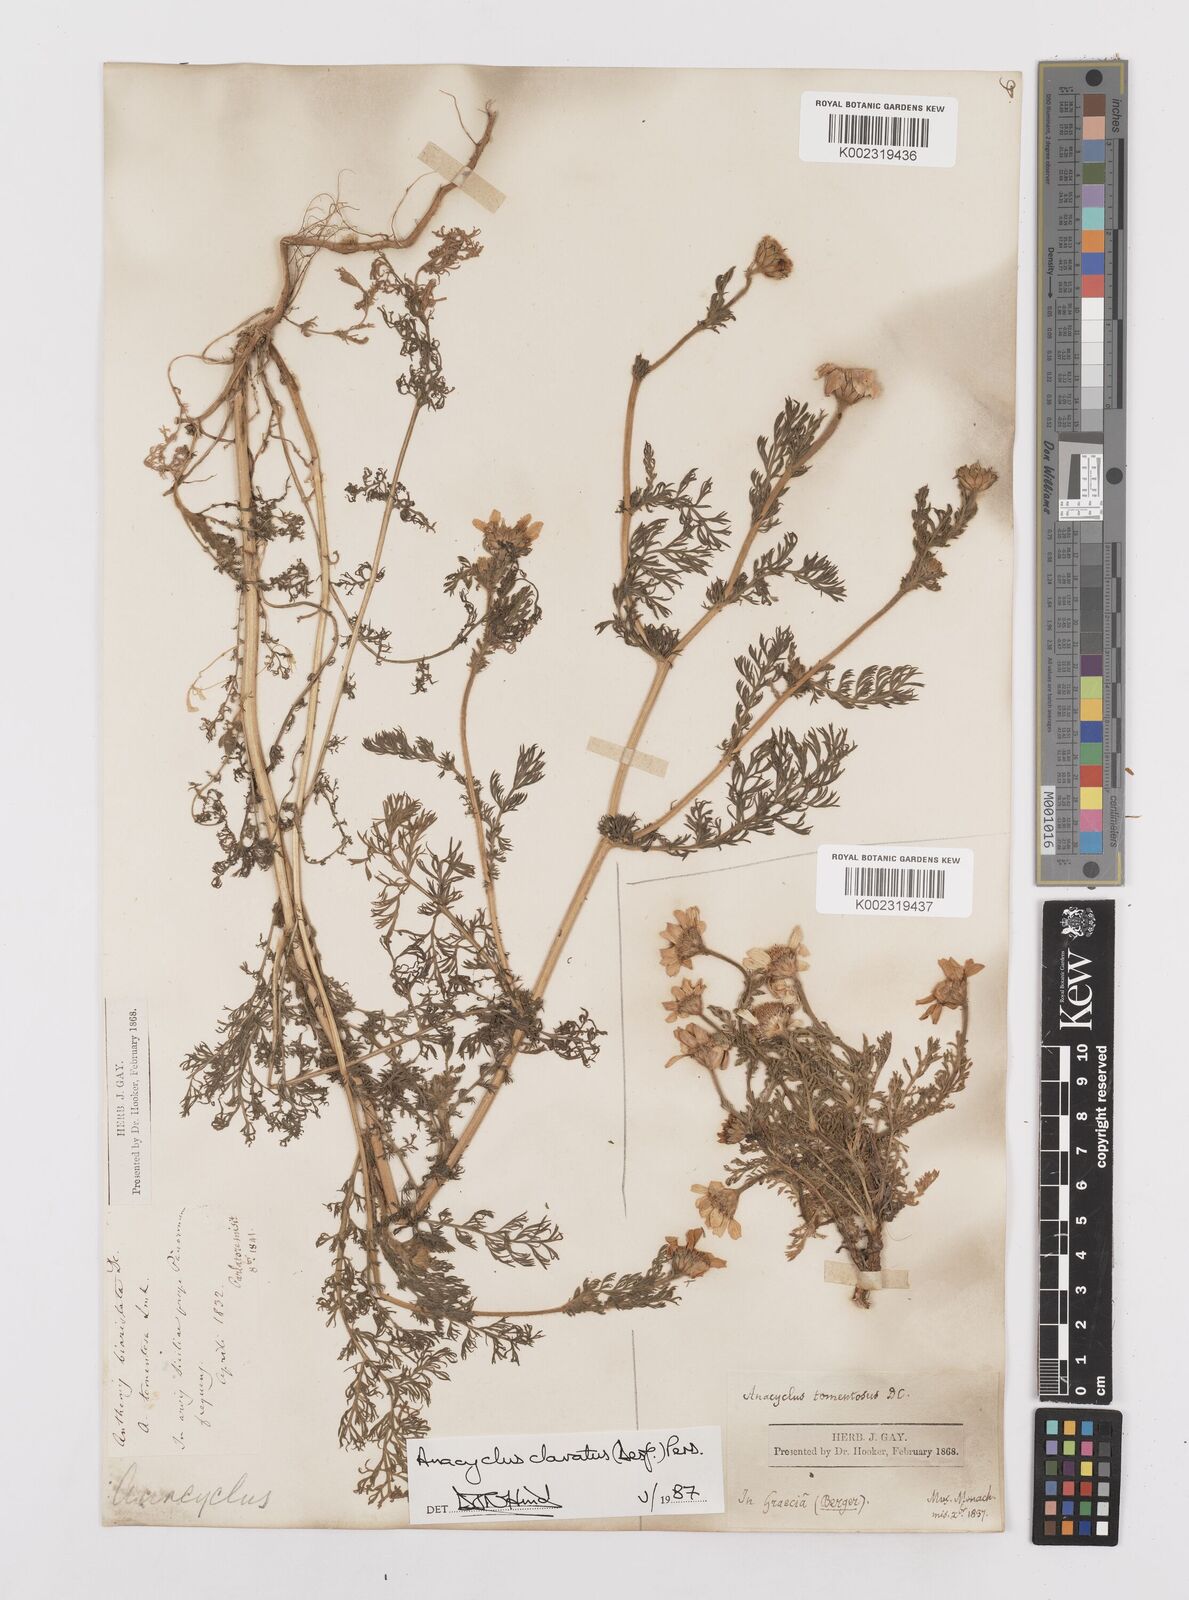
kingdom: Plantae
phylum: Tracheophyta
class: Magnoliopsida
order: Asterales
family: Asteraceae
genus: Anacyclus
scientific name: Anacyclus clavatus
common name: Whitebuttons
